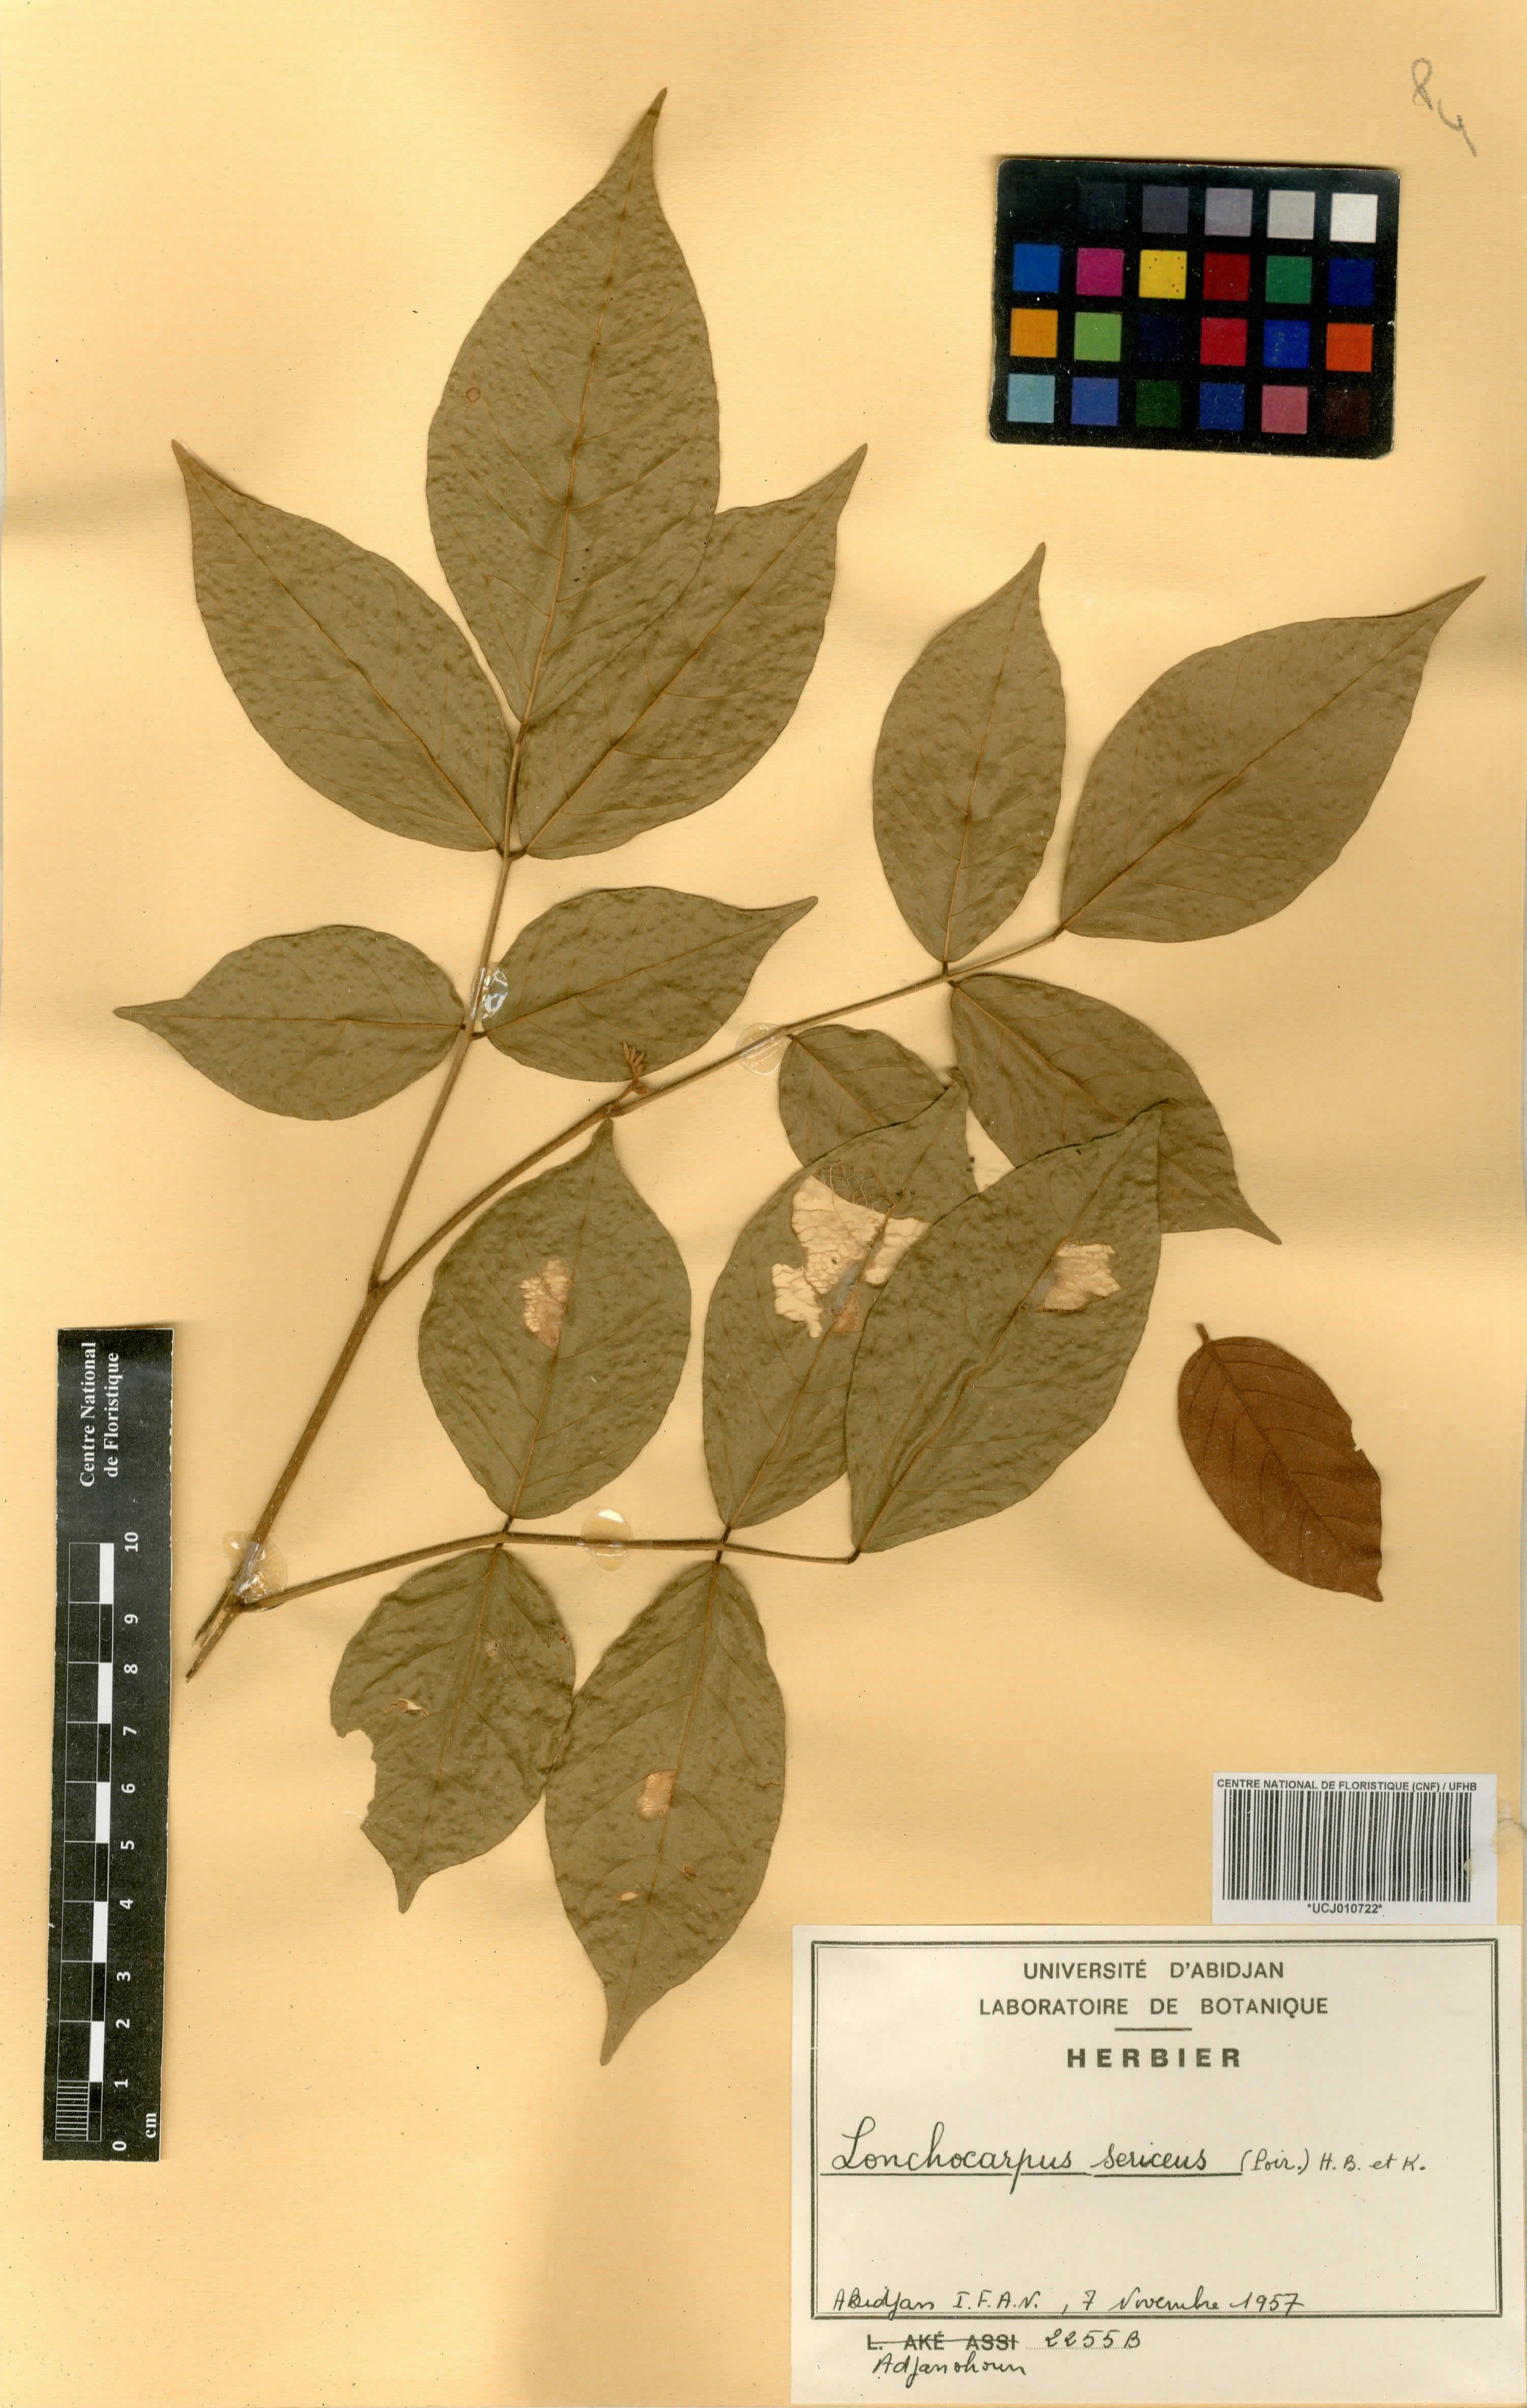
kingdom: Plantae
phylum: Tracheophyta
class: Magnoliopsida
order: Fabales
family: Fabaceae
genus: Lonchocarpus
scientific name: Lonchocarpus sericeus
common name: Savonette
